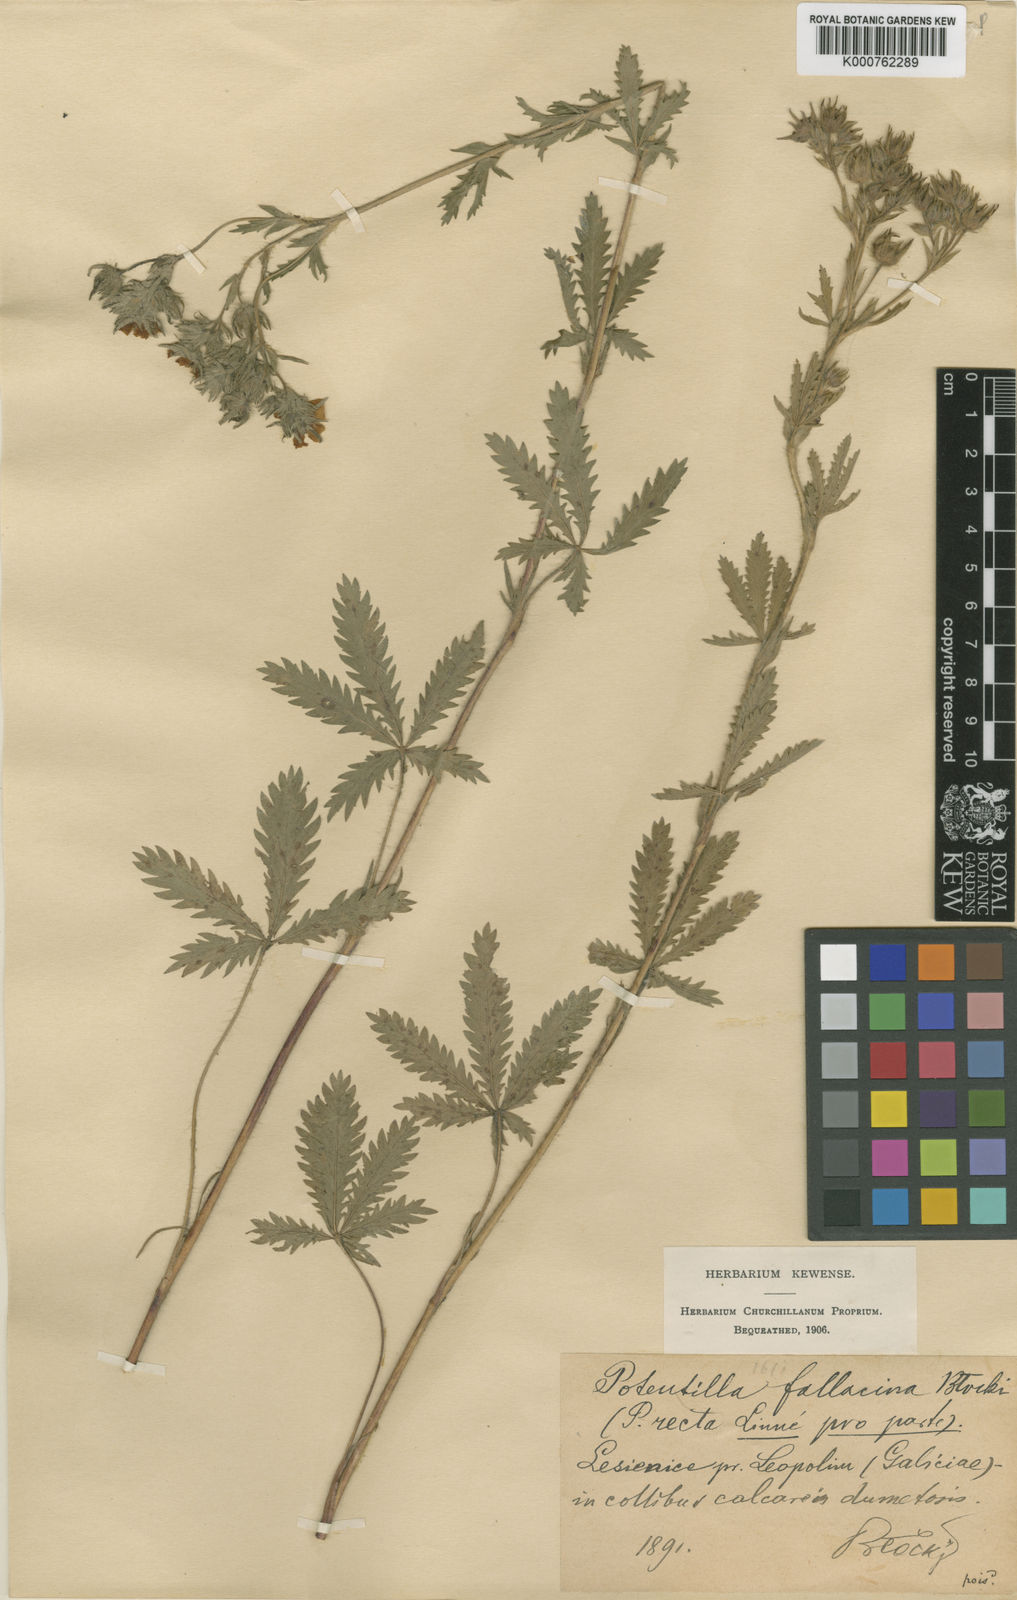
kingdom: Plantae
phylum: Tracheophyta
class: Magnoliopsida
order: Rosales
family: Rosaceae
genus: Potentilla
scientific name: Potentilla recta
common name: Sulphur cinquefoil
